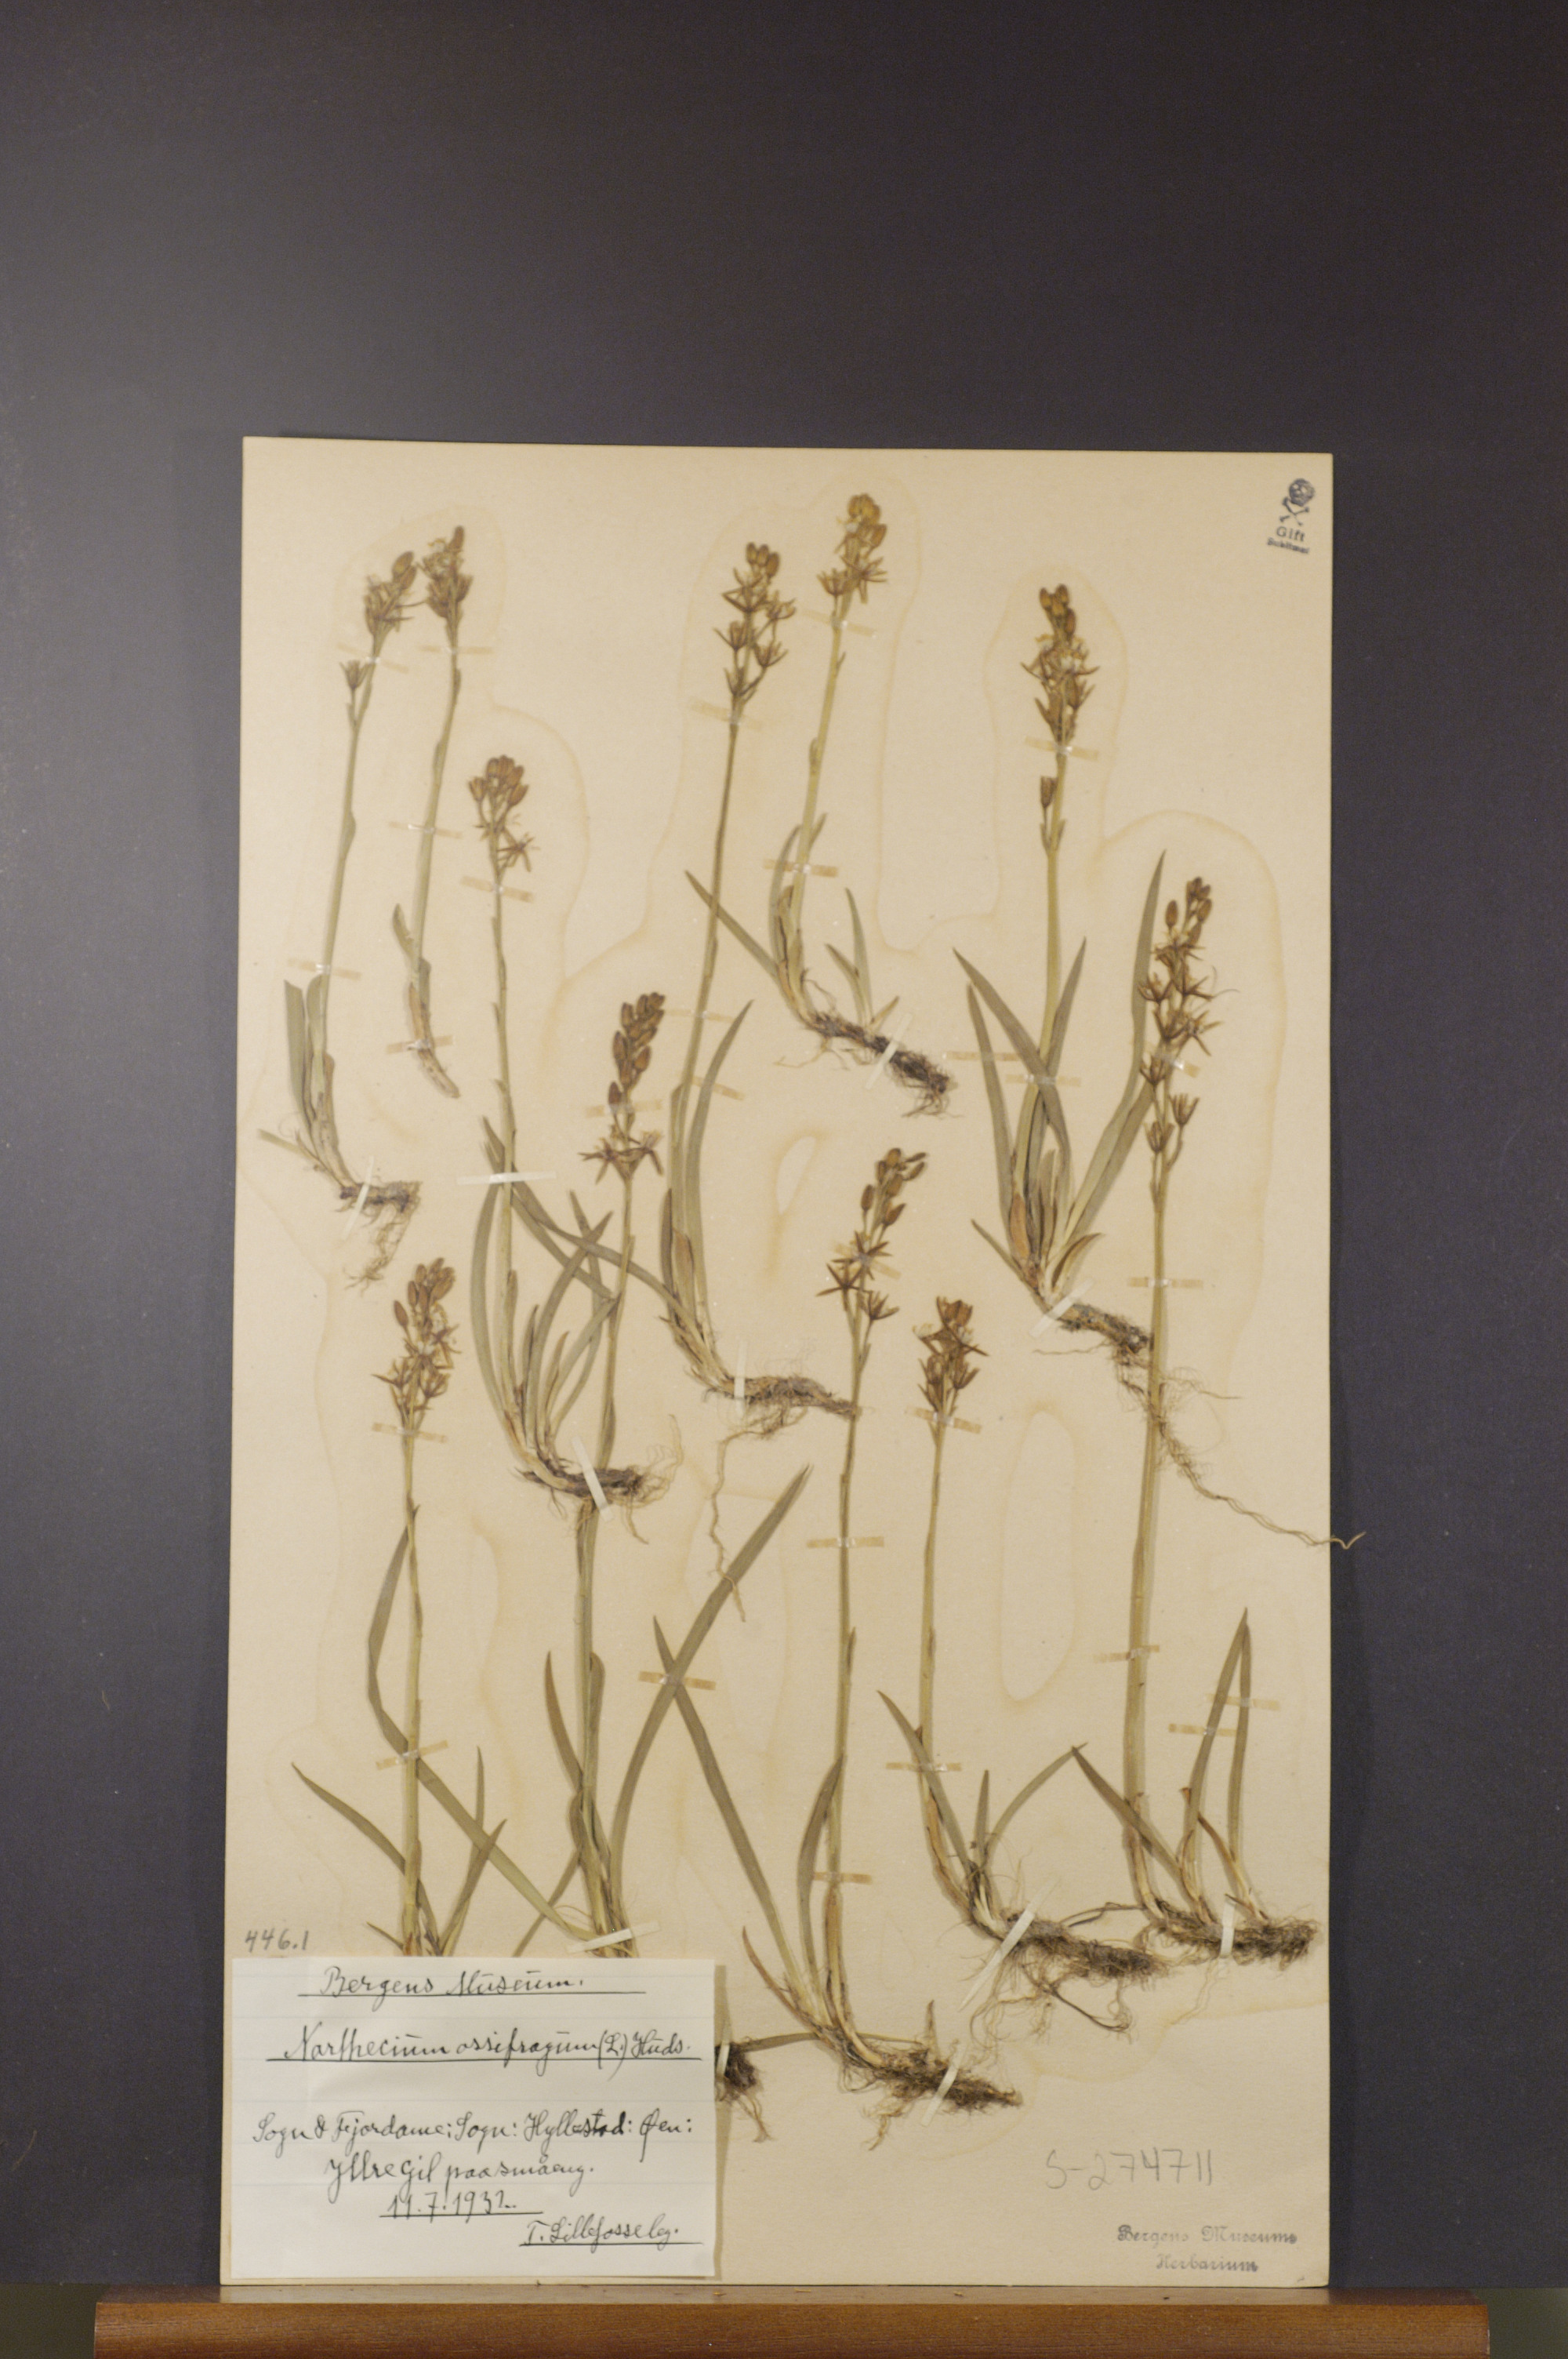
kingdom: Plantae
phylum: Tracheophyta
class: Liliopsida
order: Dioscoreales
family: Nartheciaceae
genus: Narthecium
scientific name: Narthecium ossifragum
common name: Bog asphodel
